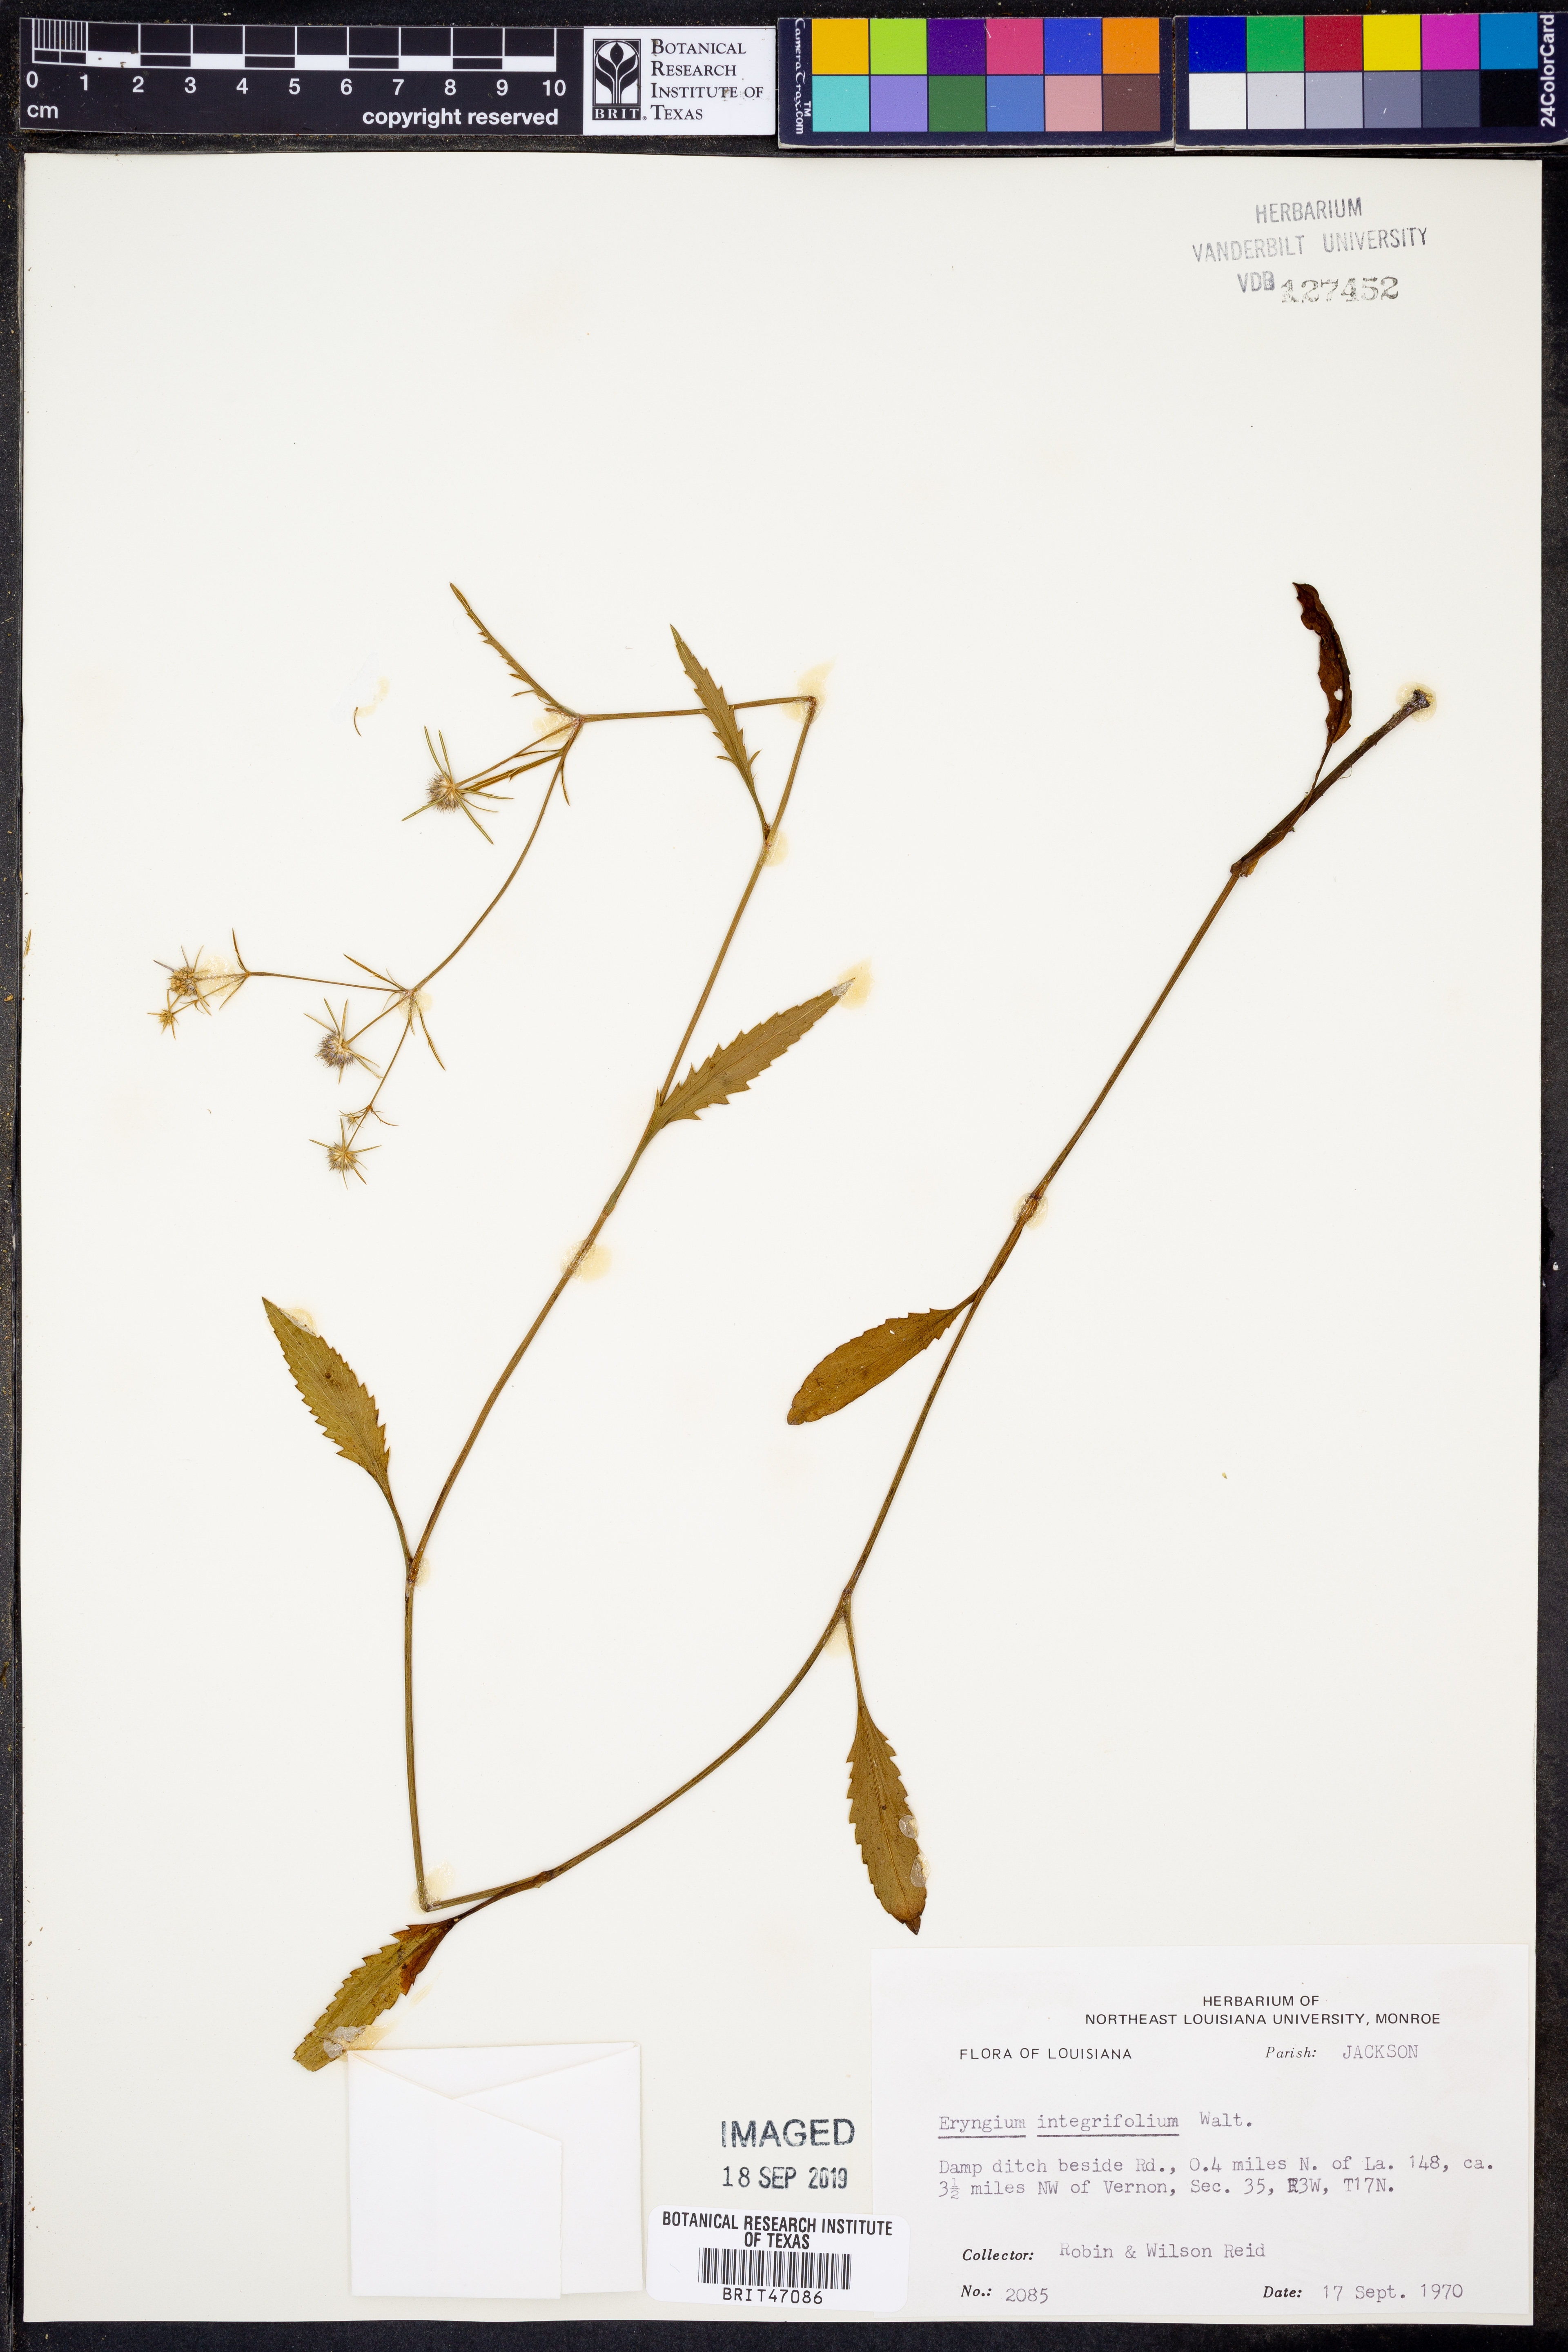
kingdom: Plantae
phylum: Tracheophyta
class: Magnoliopsida
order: Apiales
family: Apiaceae
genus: Eryngium
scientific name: Eryngium integrifolium
